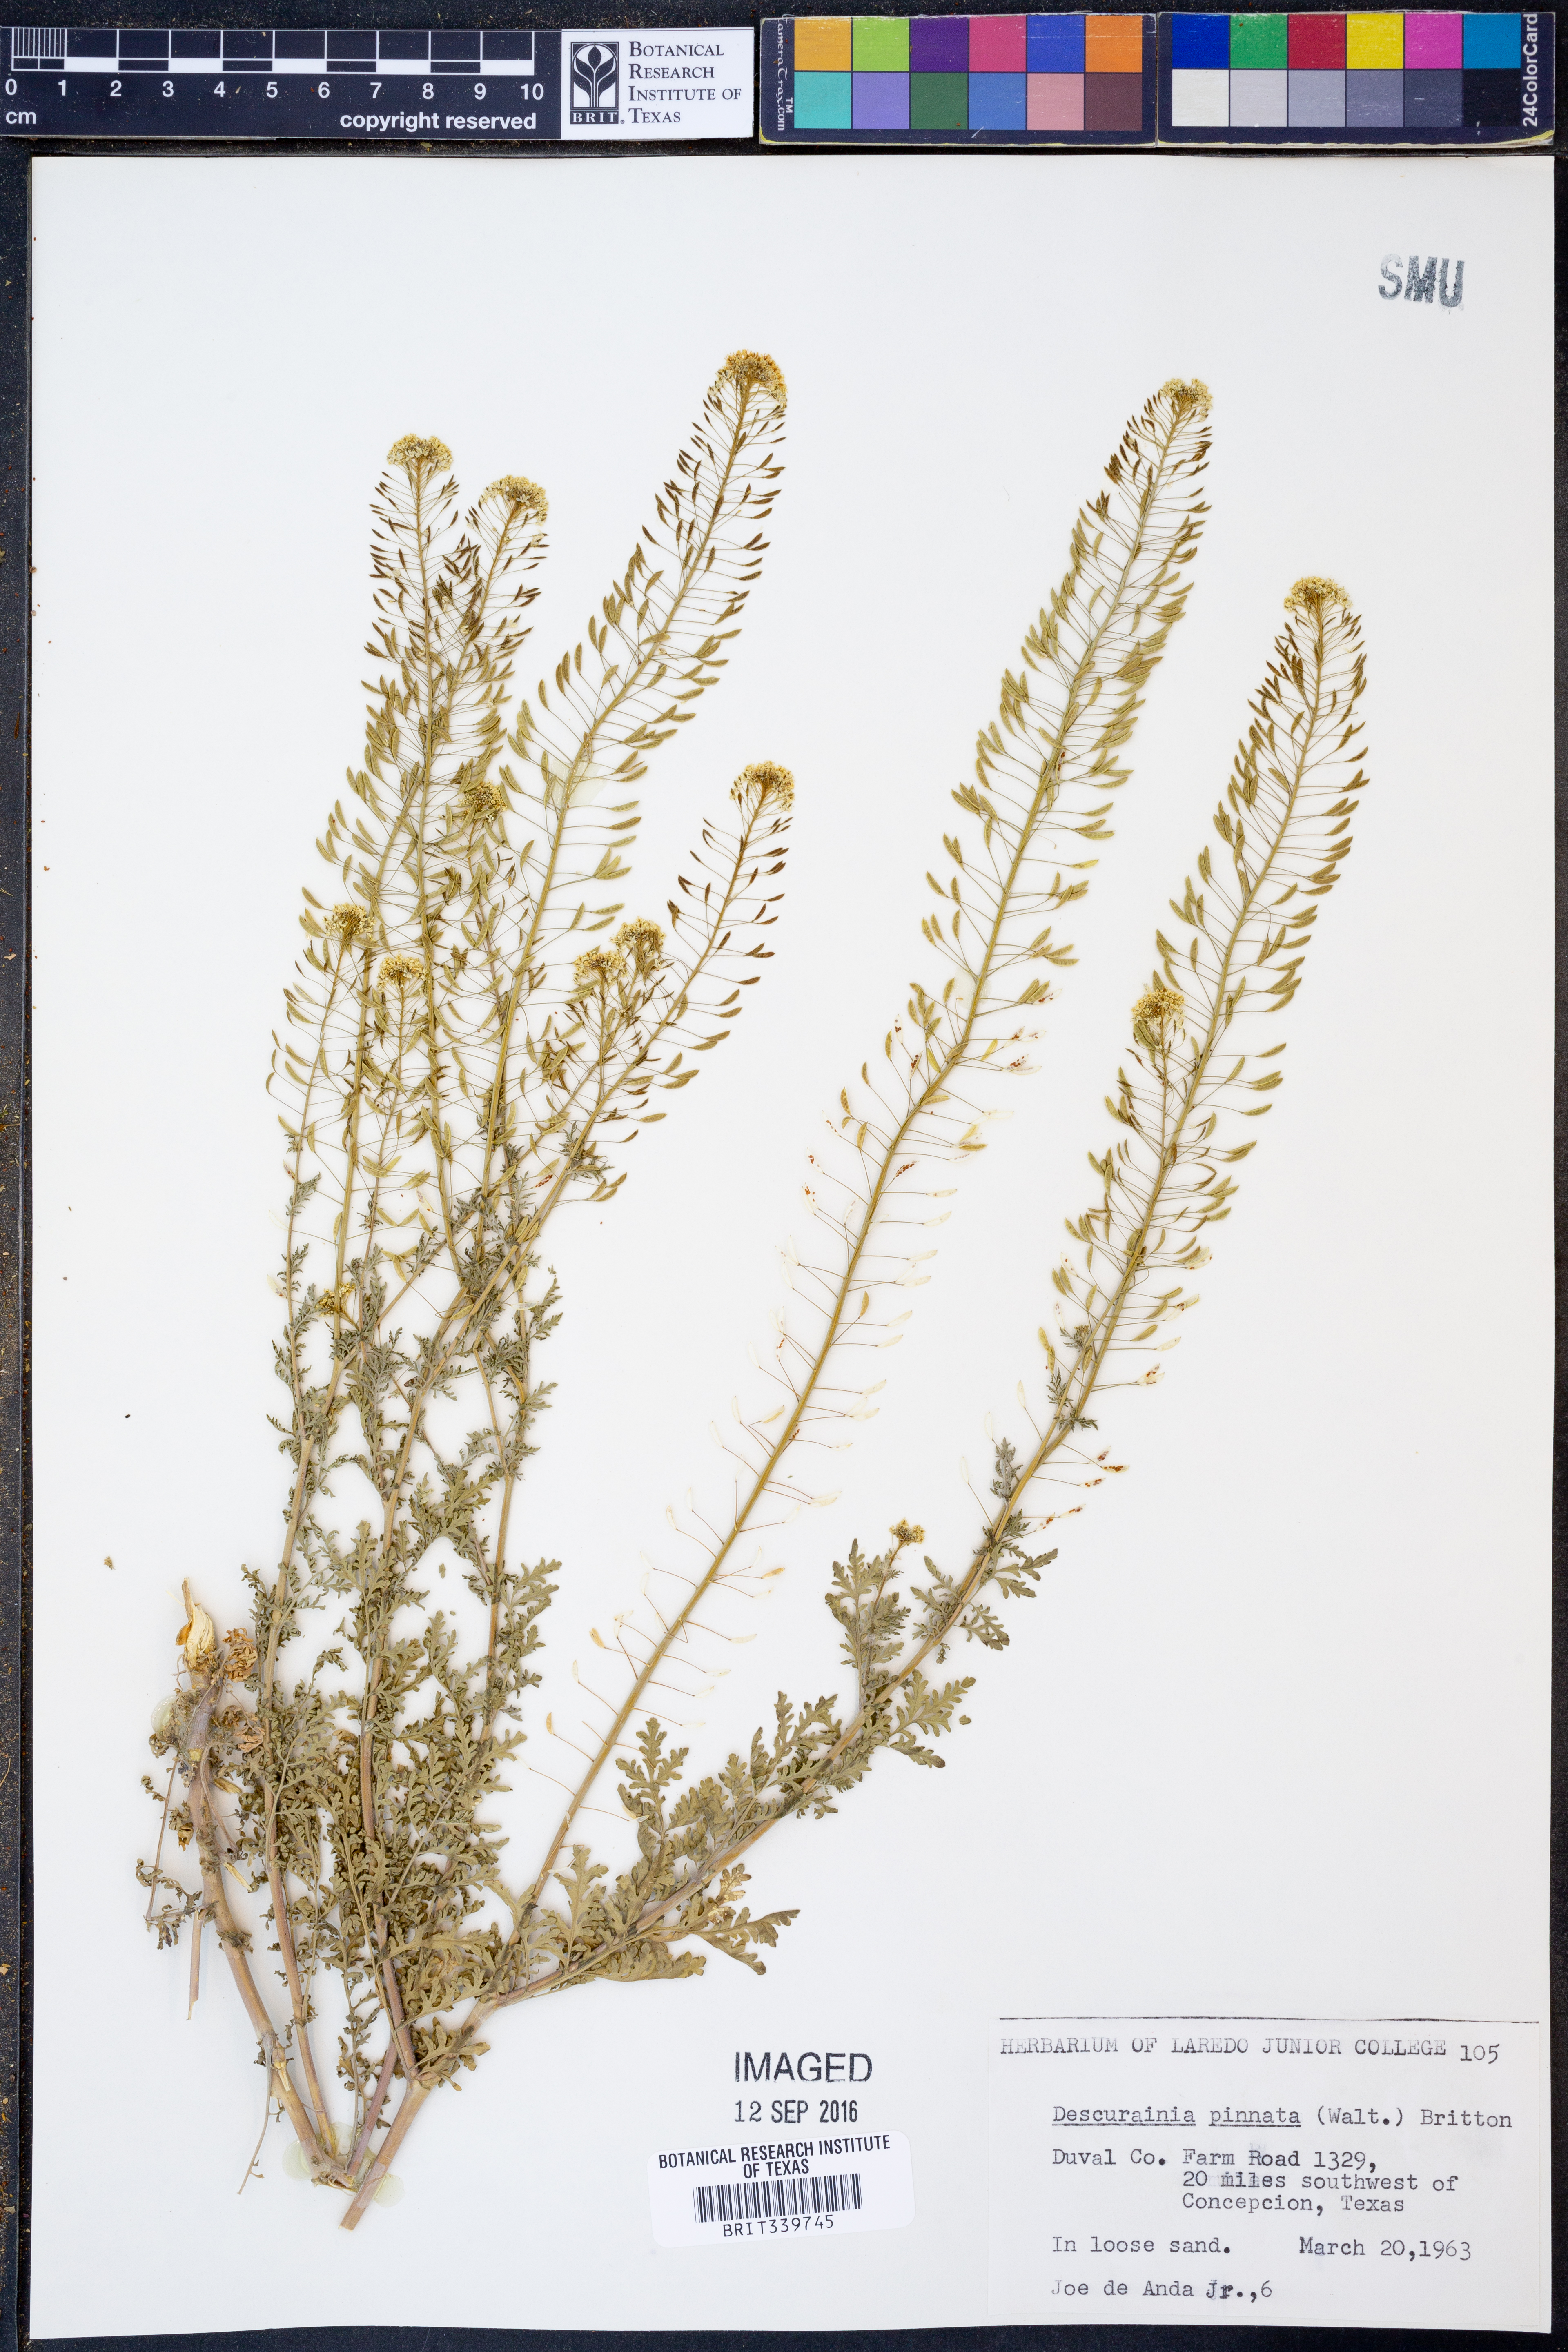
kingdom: Plantae
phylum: Tracheophyta
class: Magnoliopsida
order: Brassicales
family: Brassicaceae
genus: Descurainia
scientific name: Descurainia pinnata
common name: Western tansy mustard
